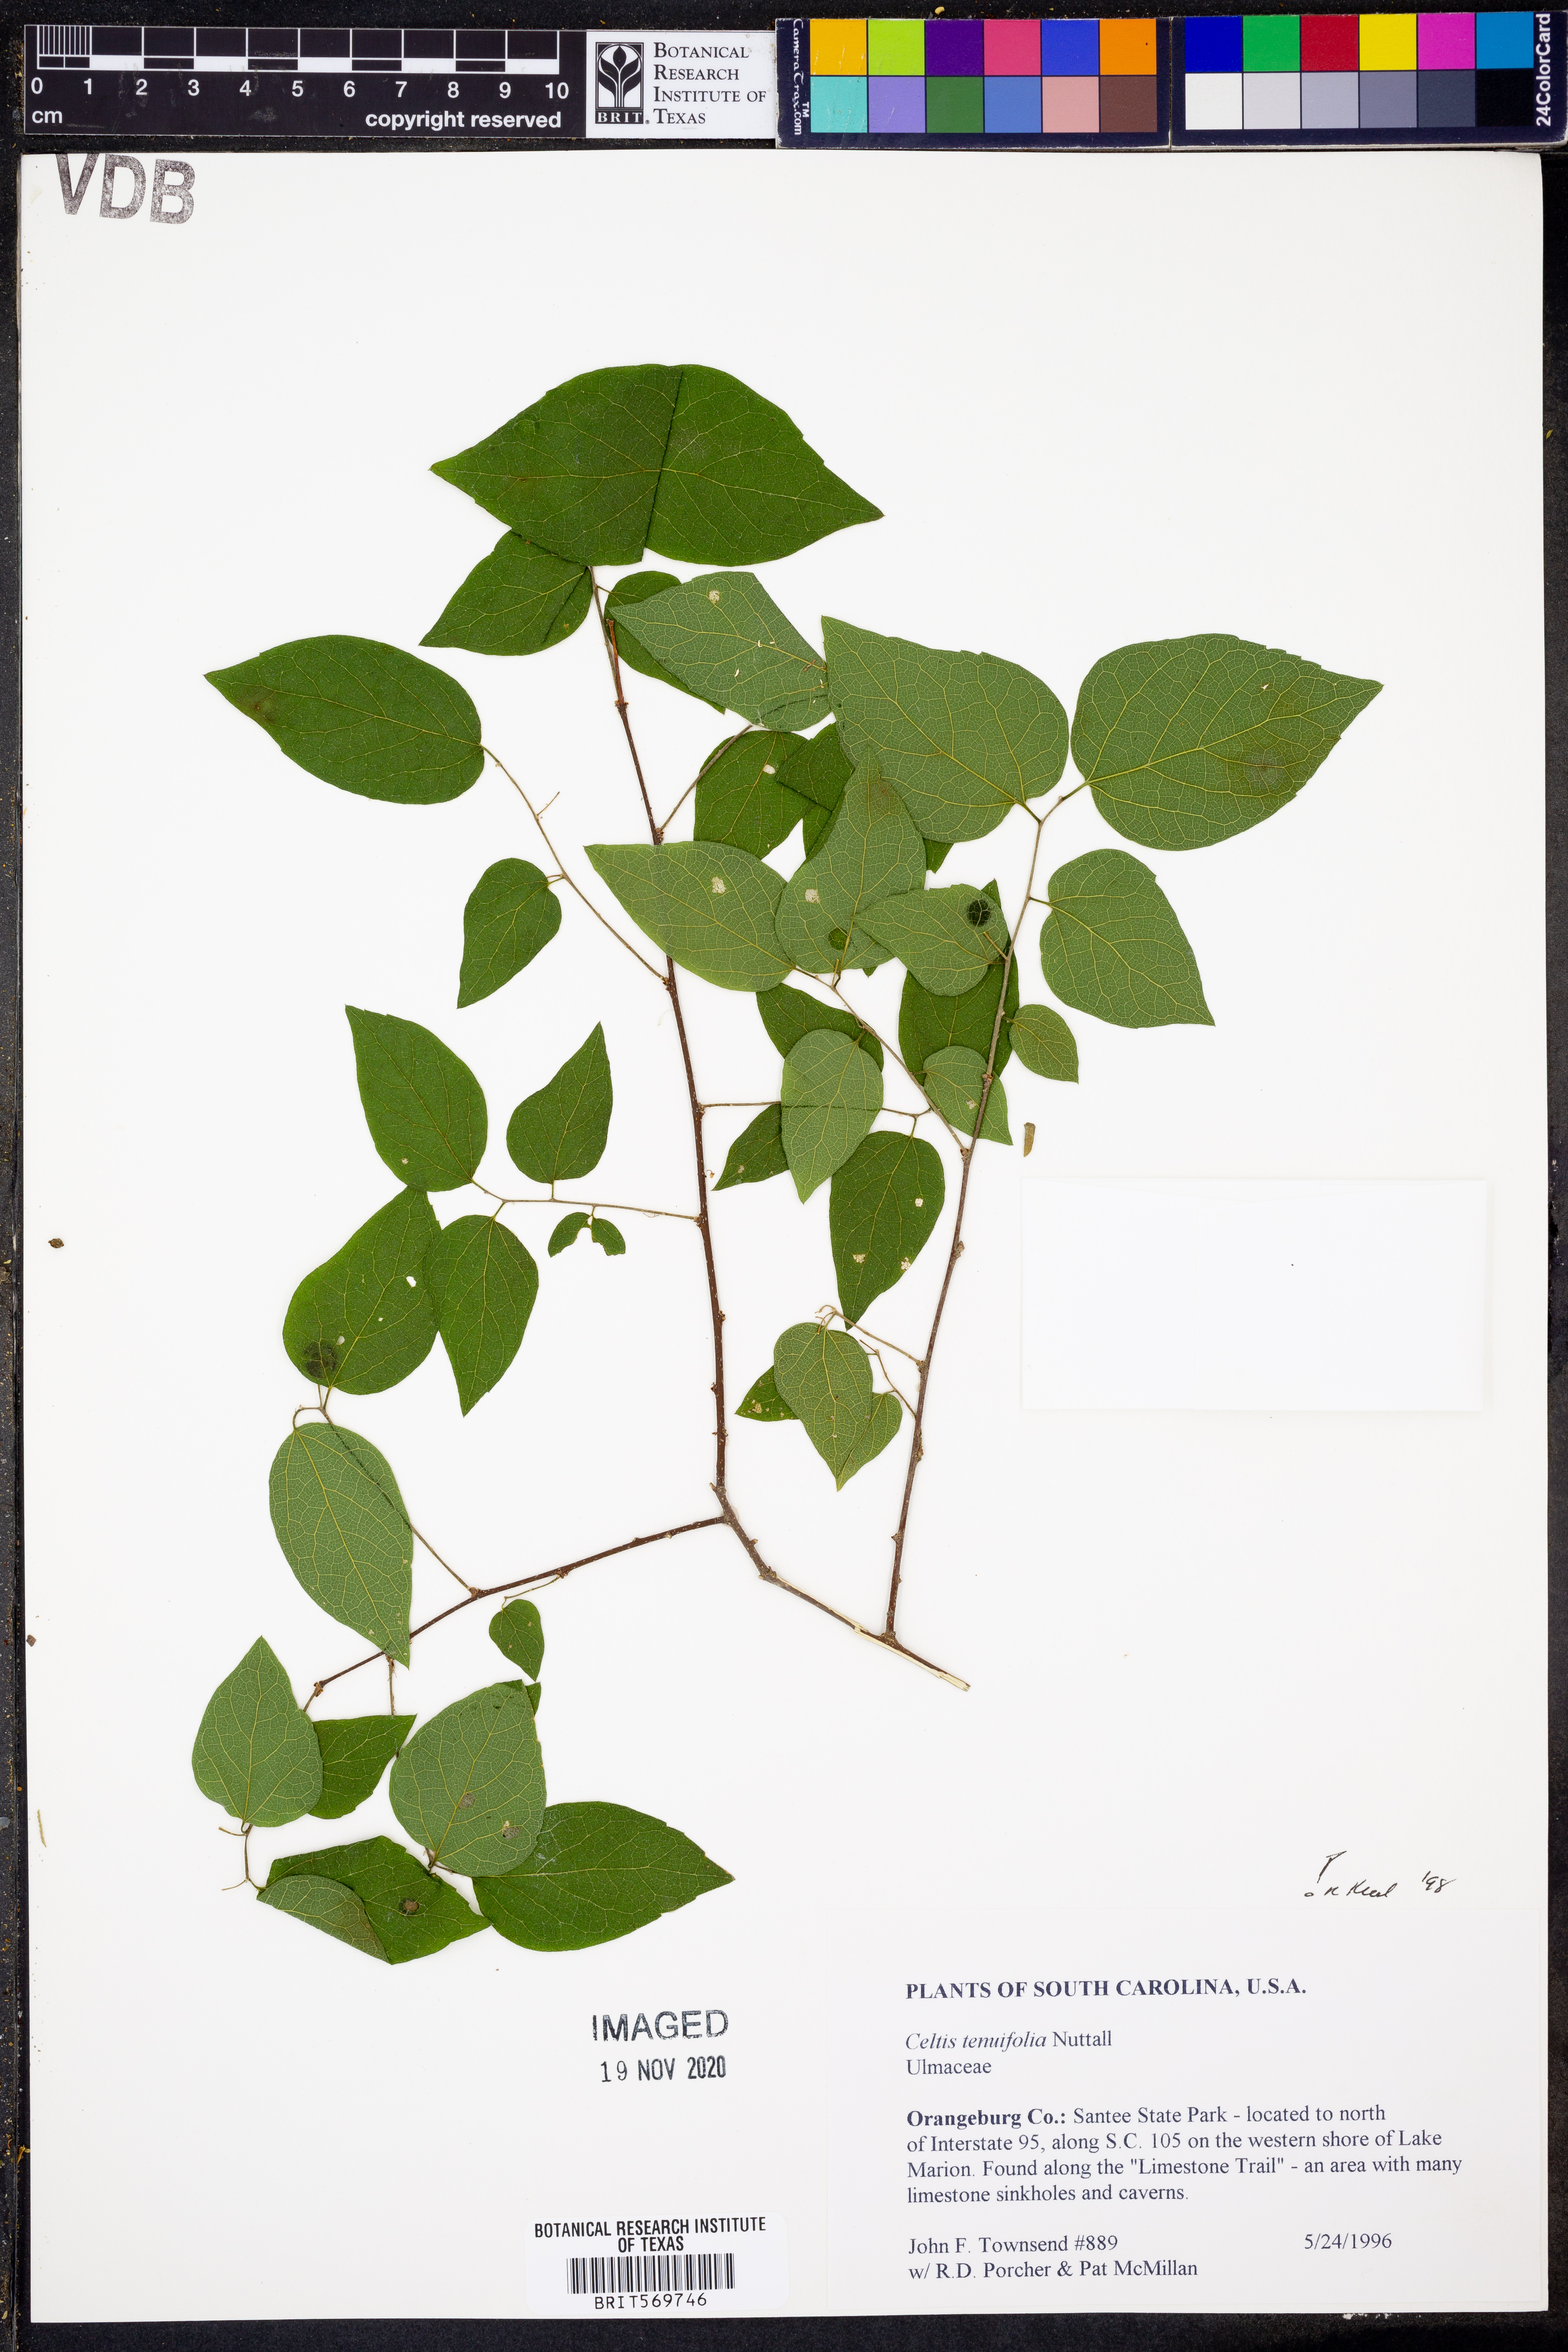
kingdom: Plantae
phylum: Tracheophyta
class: Magnoliopsida
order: Rosales
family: Cannabaceae
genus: Celtis
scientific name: Celtis tenuifolia
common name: Georgia hackberry
